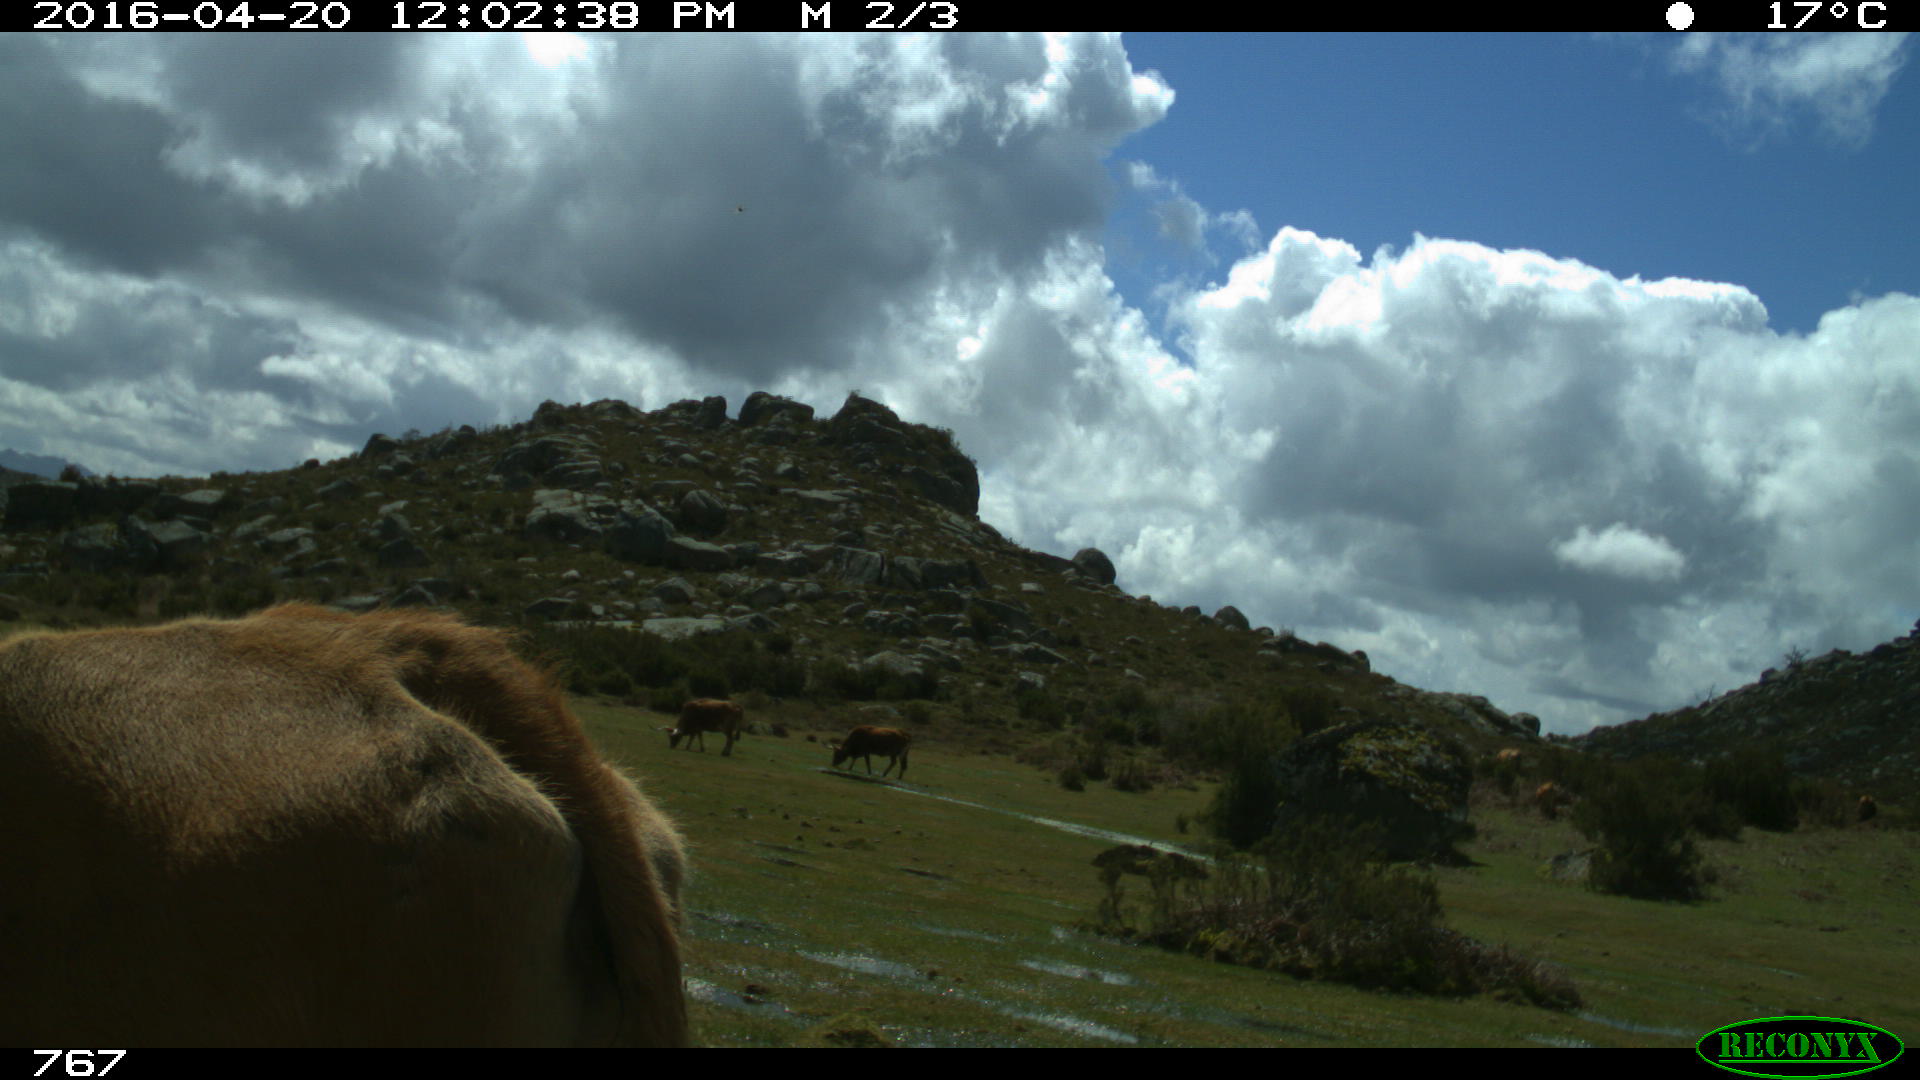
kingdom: Animalia
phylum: Chordata
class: Mammalia
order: Artiodactyla
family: Bovidae
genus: Bos
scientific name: Bos taurus
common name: Domesticated cattle
